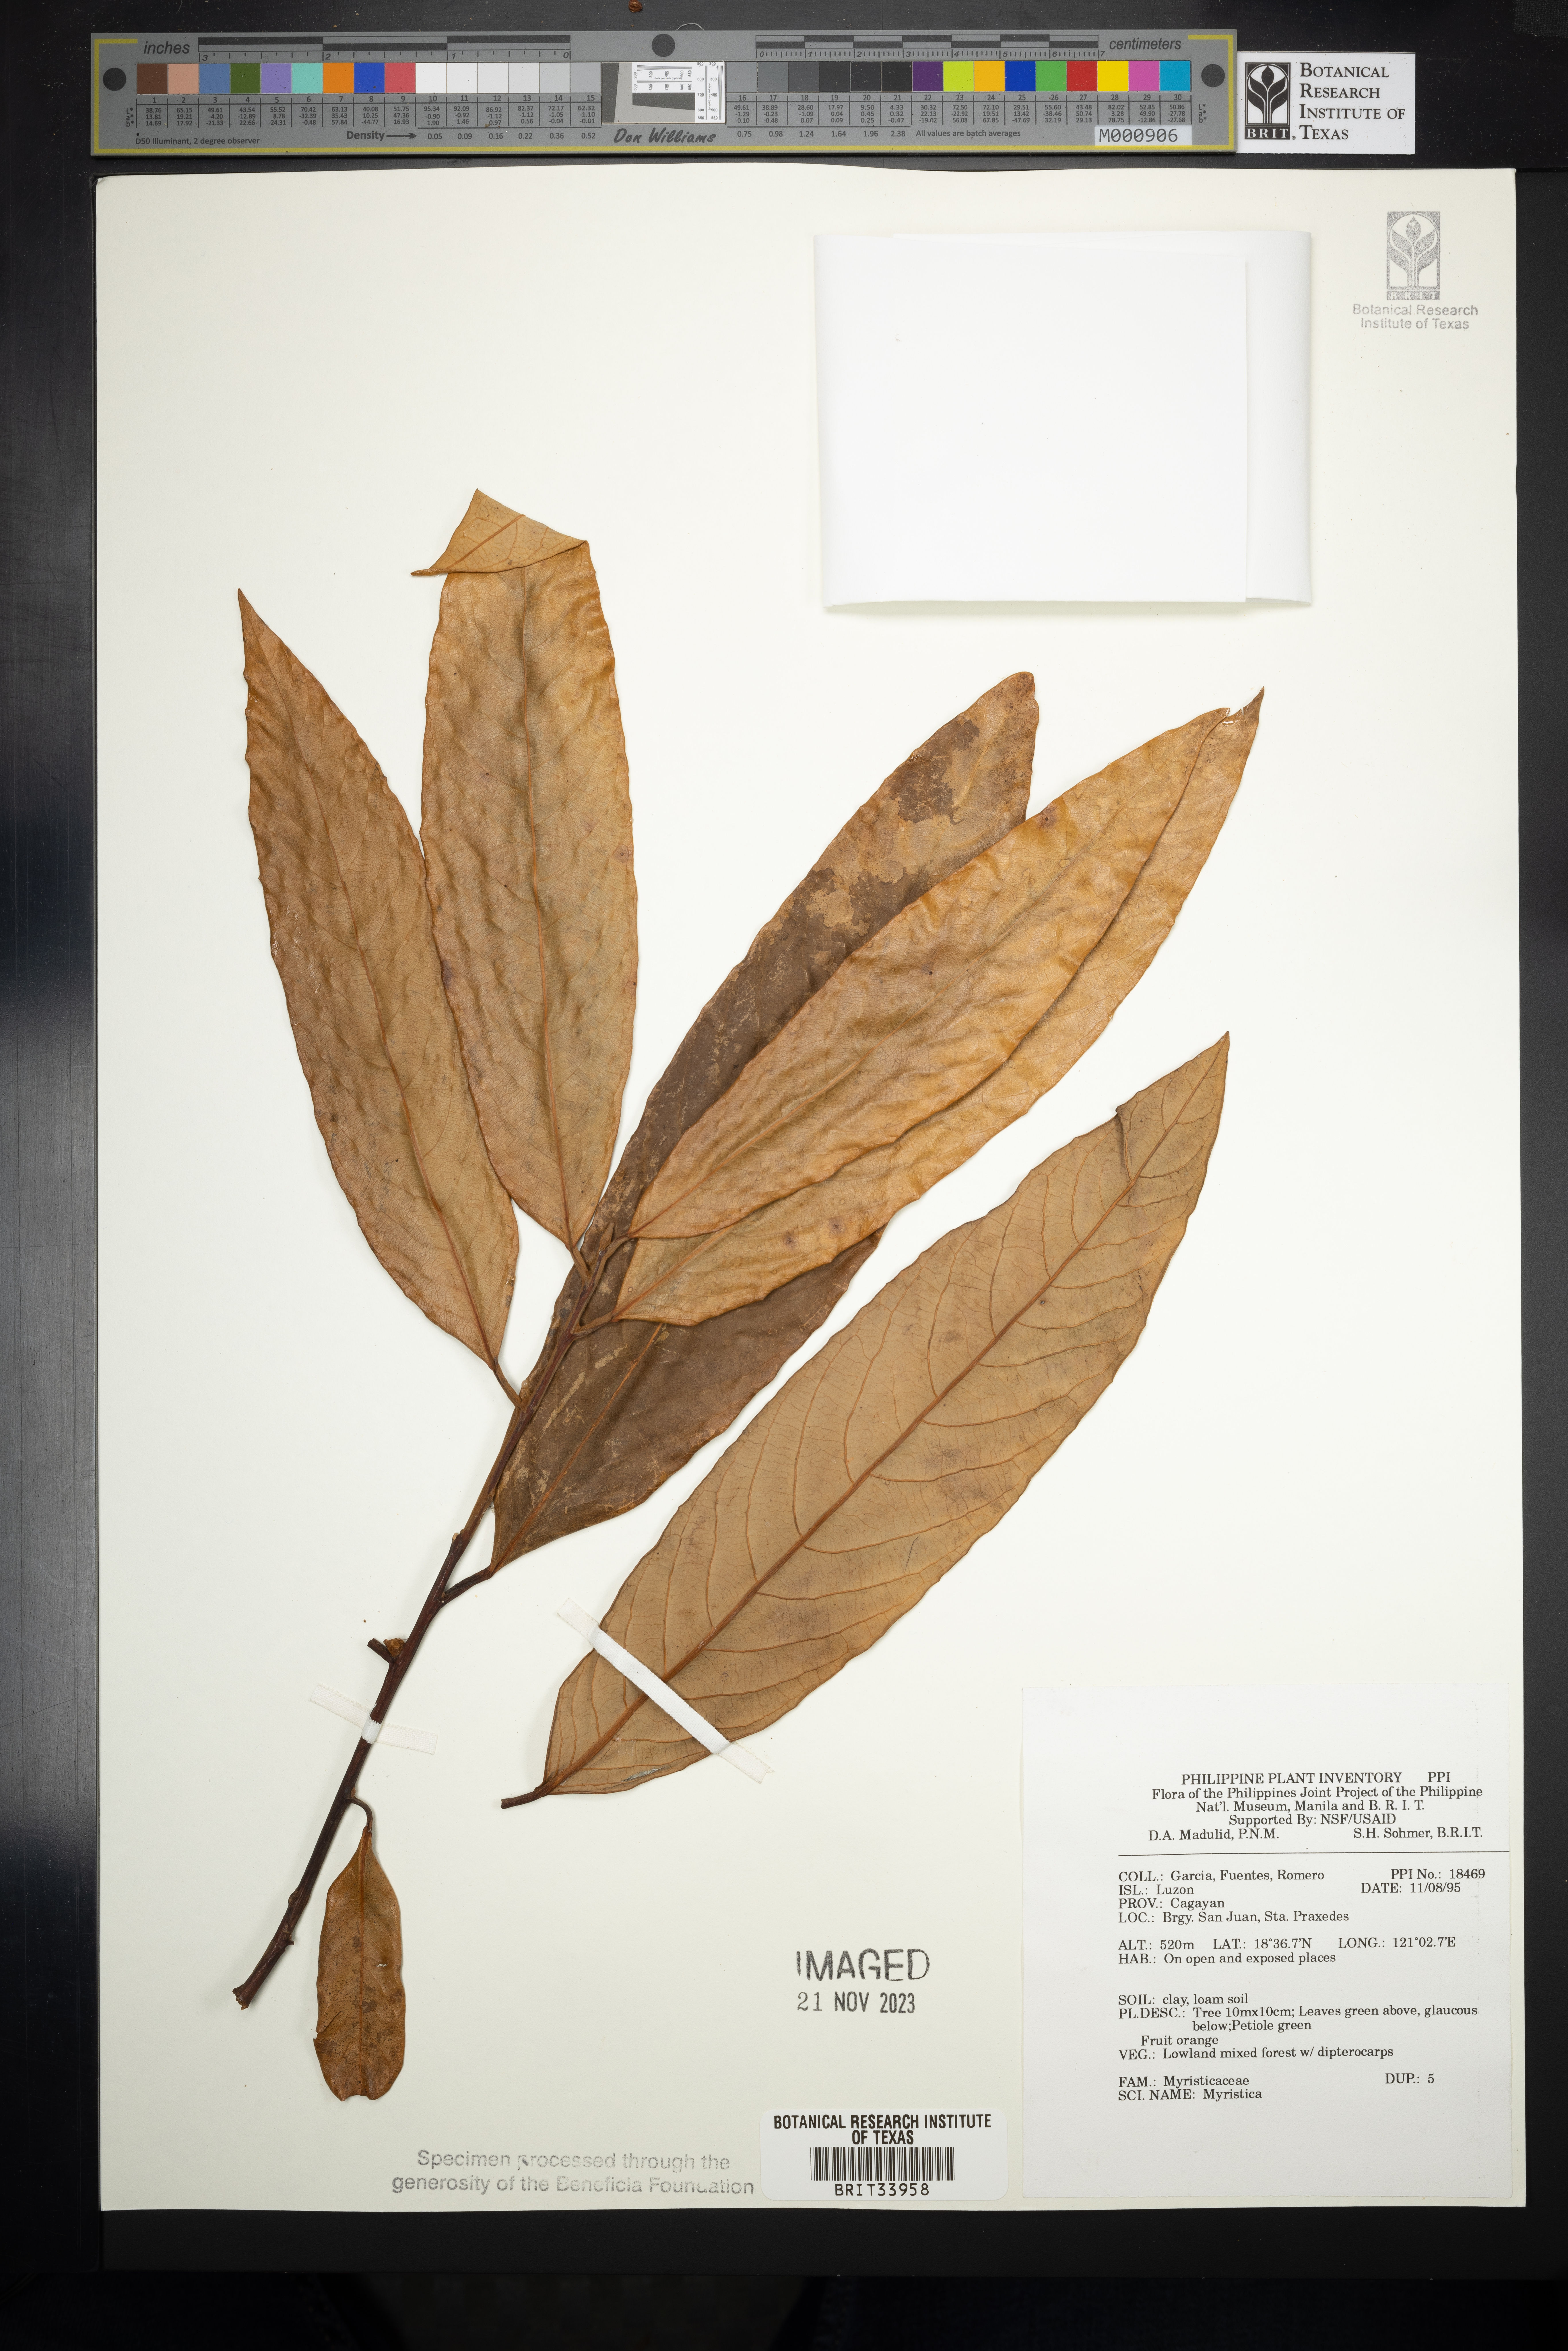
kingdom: Plantae
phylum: Tracheophyta
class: Magnoliopsida
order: Magnoliales
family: Myristicaceae
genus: Myristica
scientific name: Myristica
